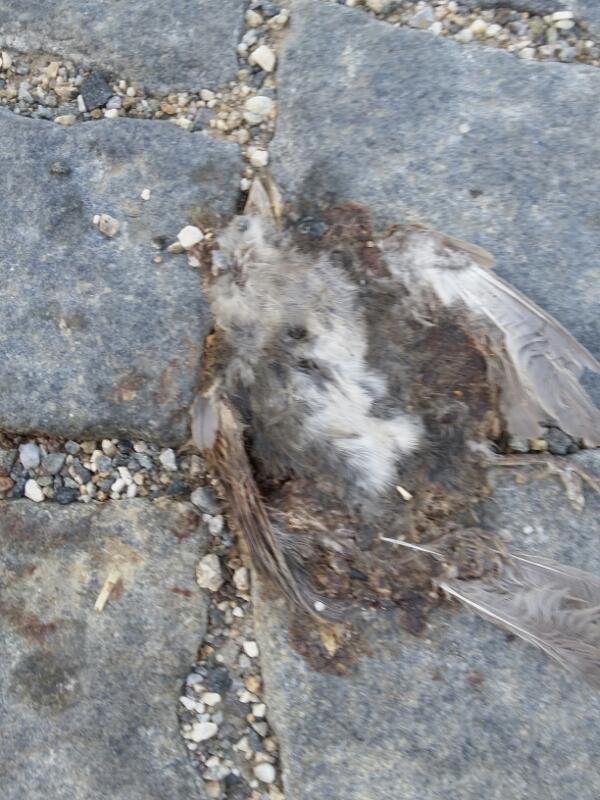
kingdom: Animalia
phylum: Chordata
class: Aves
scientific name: Aves
